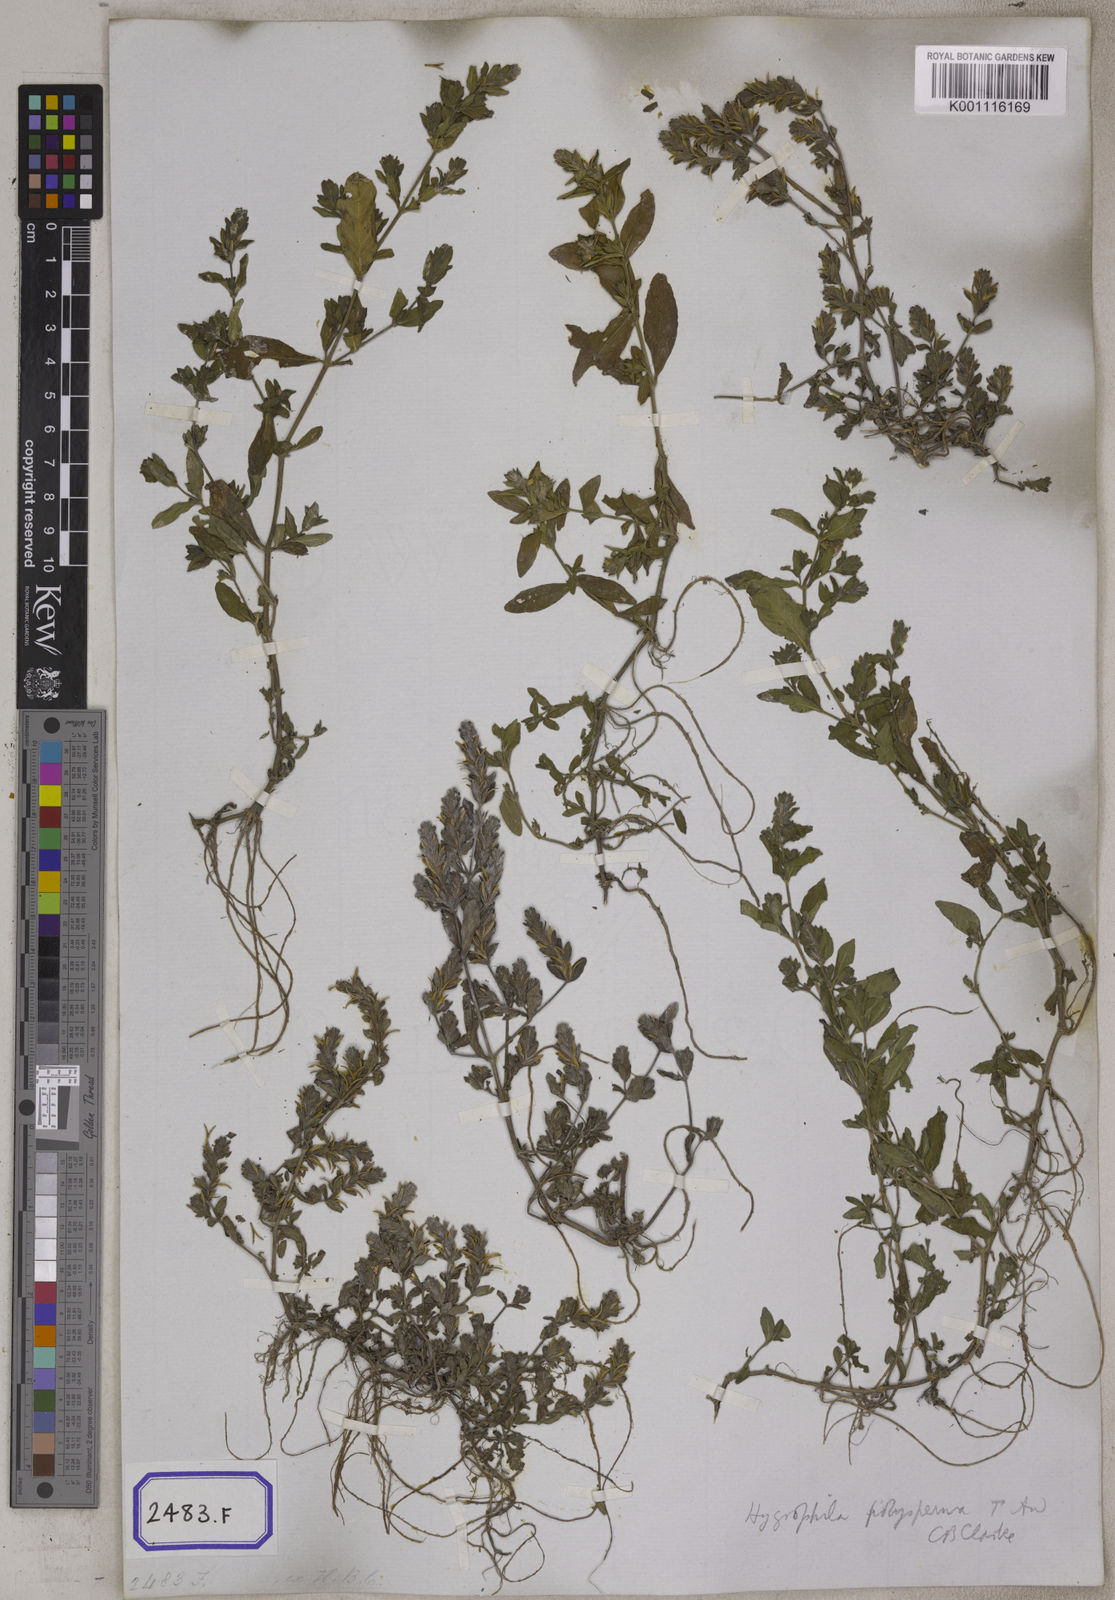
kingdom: Plantae
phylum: Tracheophyta
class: Magnoliopsida
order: Lamiales
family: Acanthaceae
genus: Hygrophila
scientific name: Hygrophila polysperma
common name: Indian swampweed
